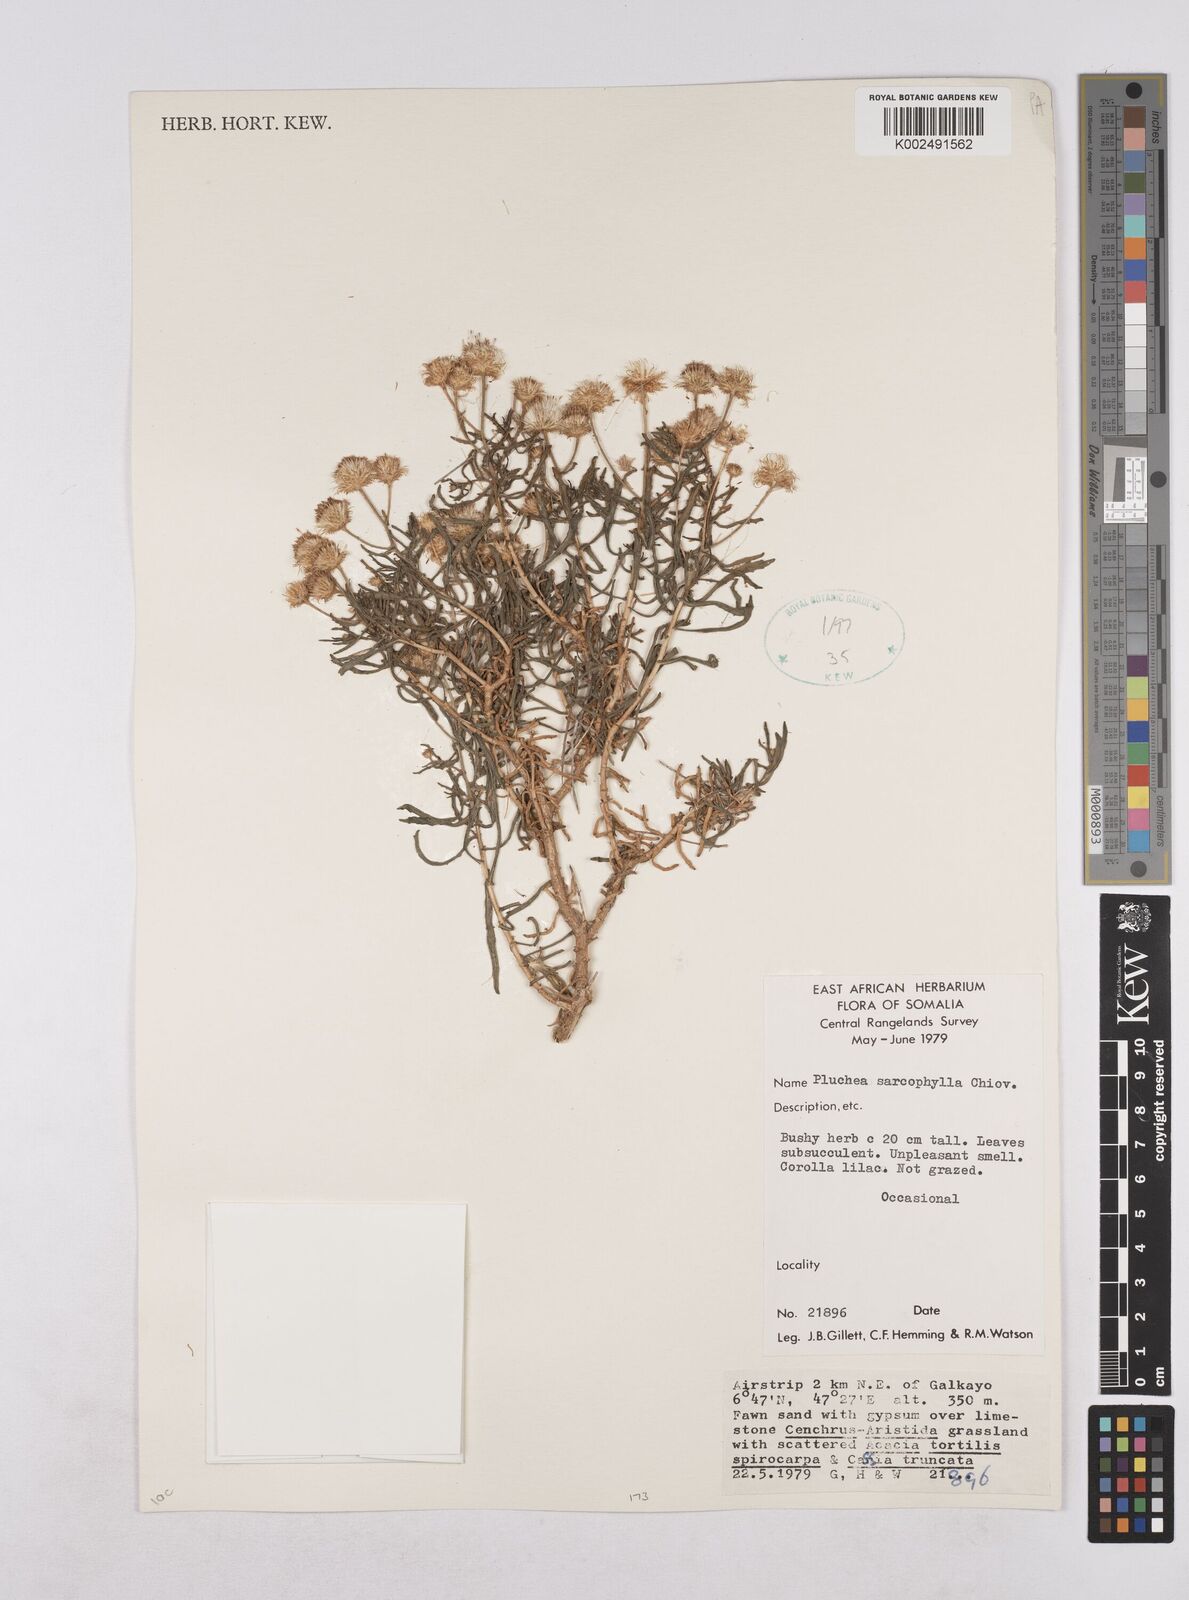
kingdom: Plantae
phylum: Tracheophyta
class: Magnoliopsida
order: Asterales
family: Asteraceae
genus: Pluchea
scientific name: Pluchea sarcophylla
